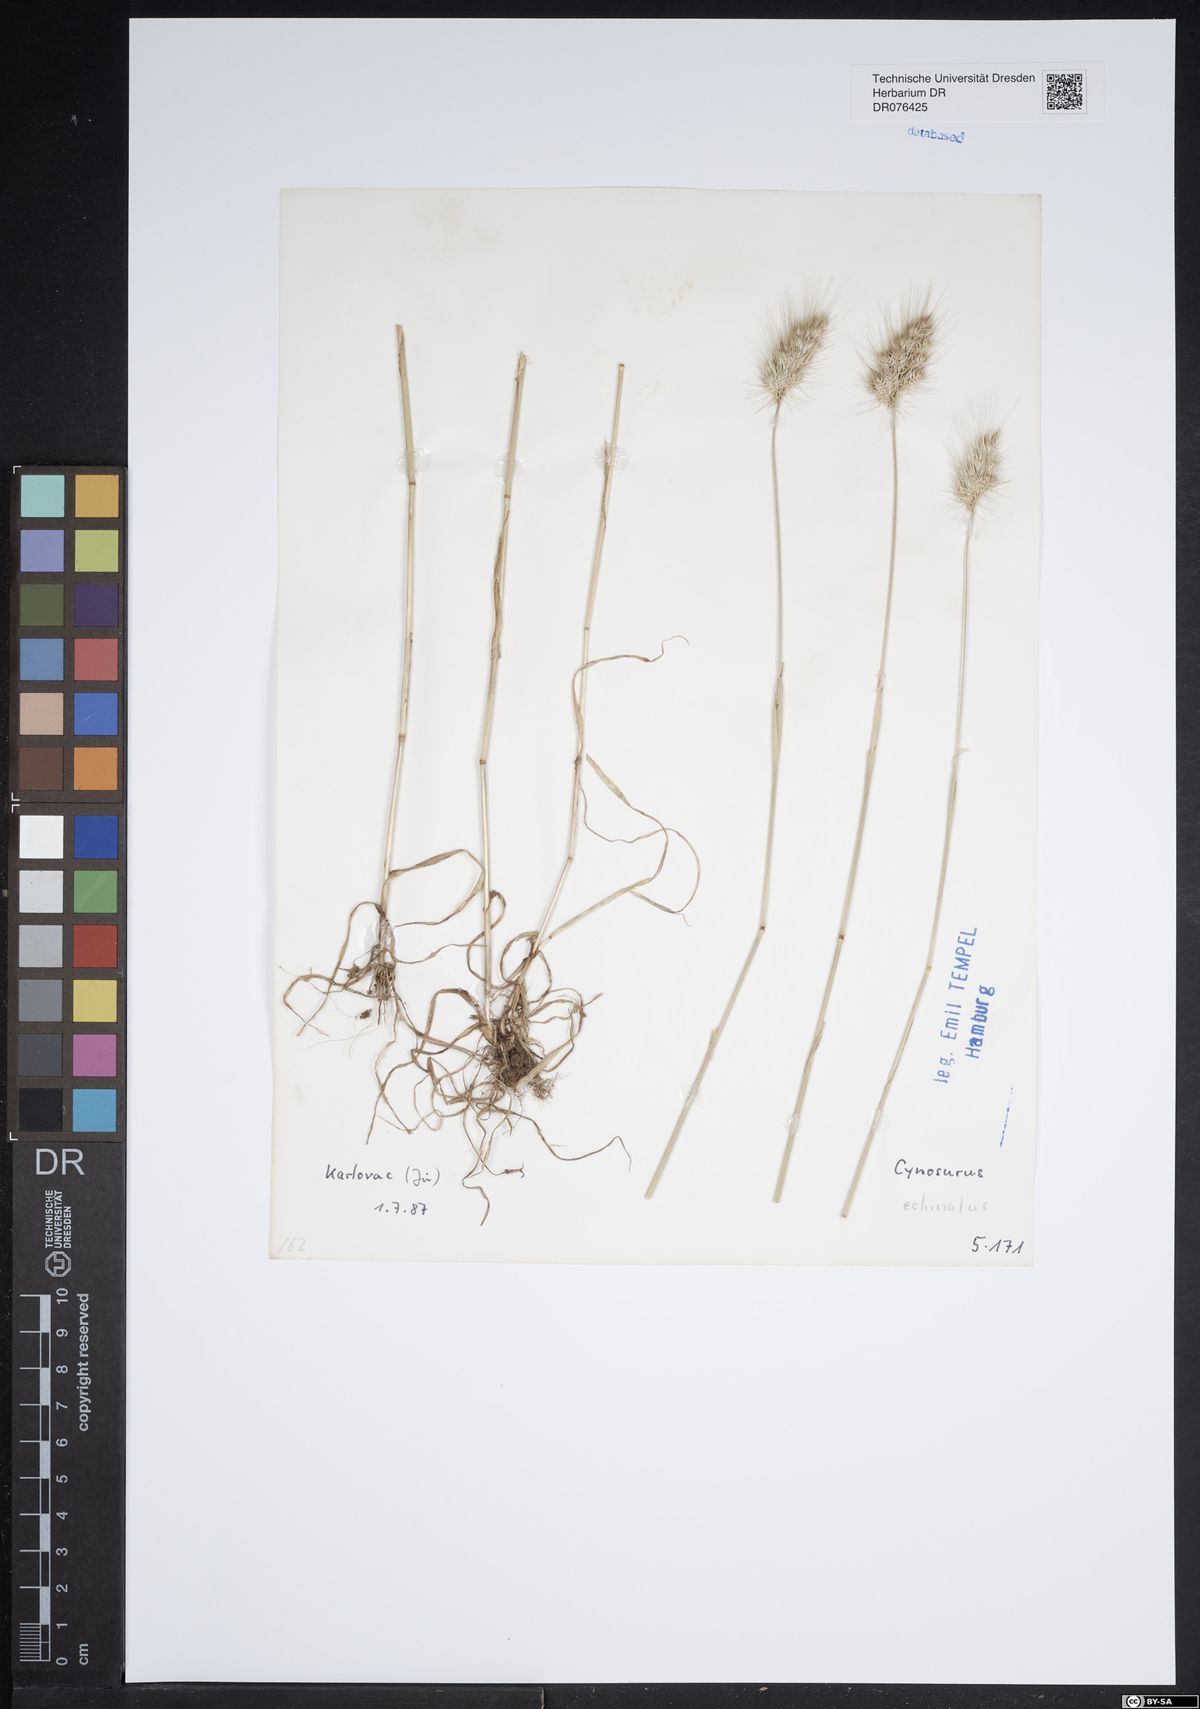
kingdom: Plantae
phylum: Tracheophyta
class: Liliopsida
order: Poales
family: Poaceae
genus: Cynosurus
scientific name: Cynosurus echinatus
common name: Rough dog's-tail
